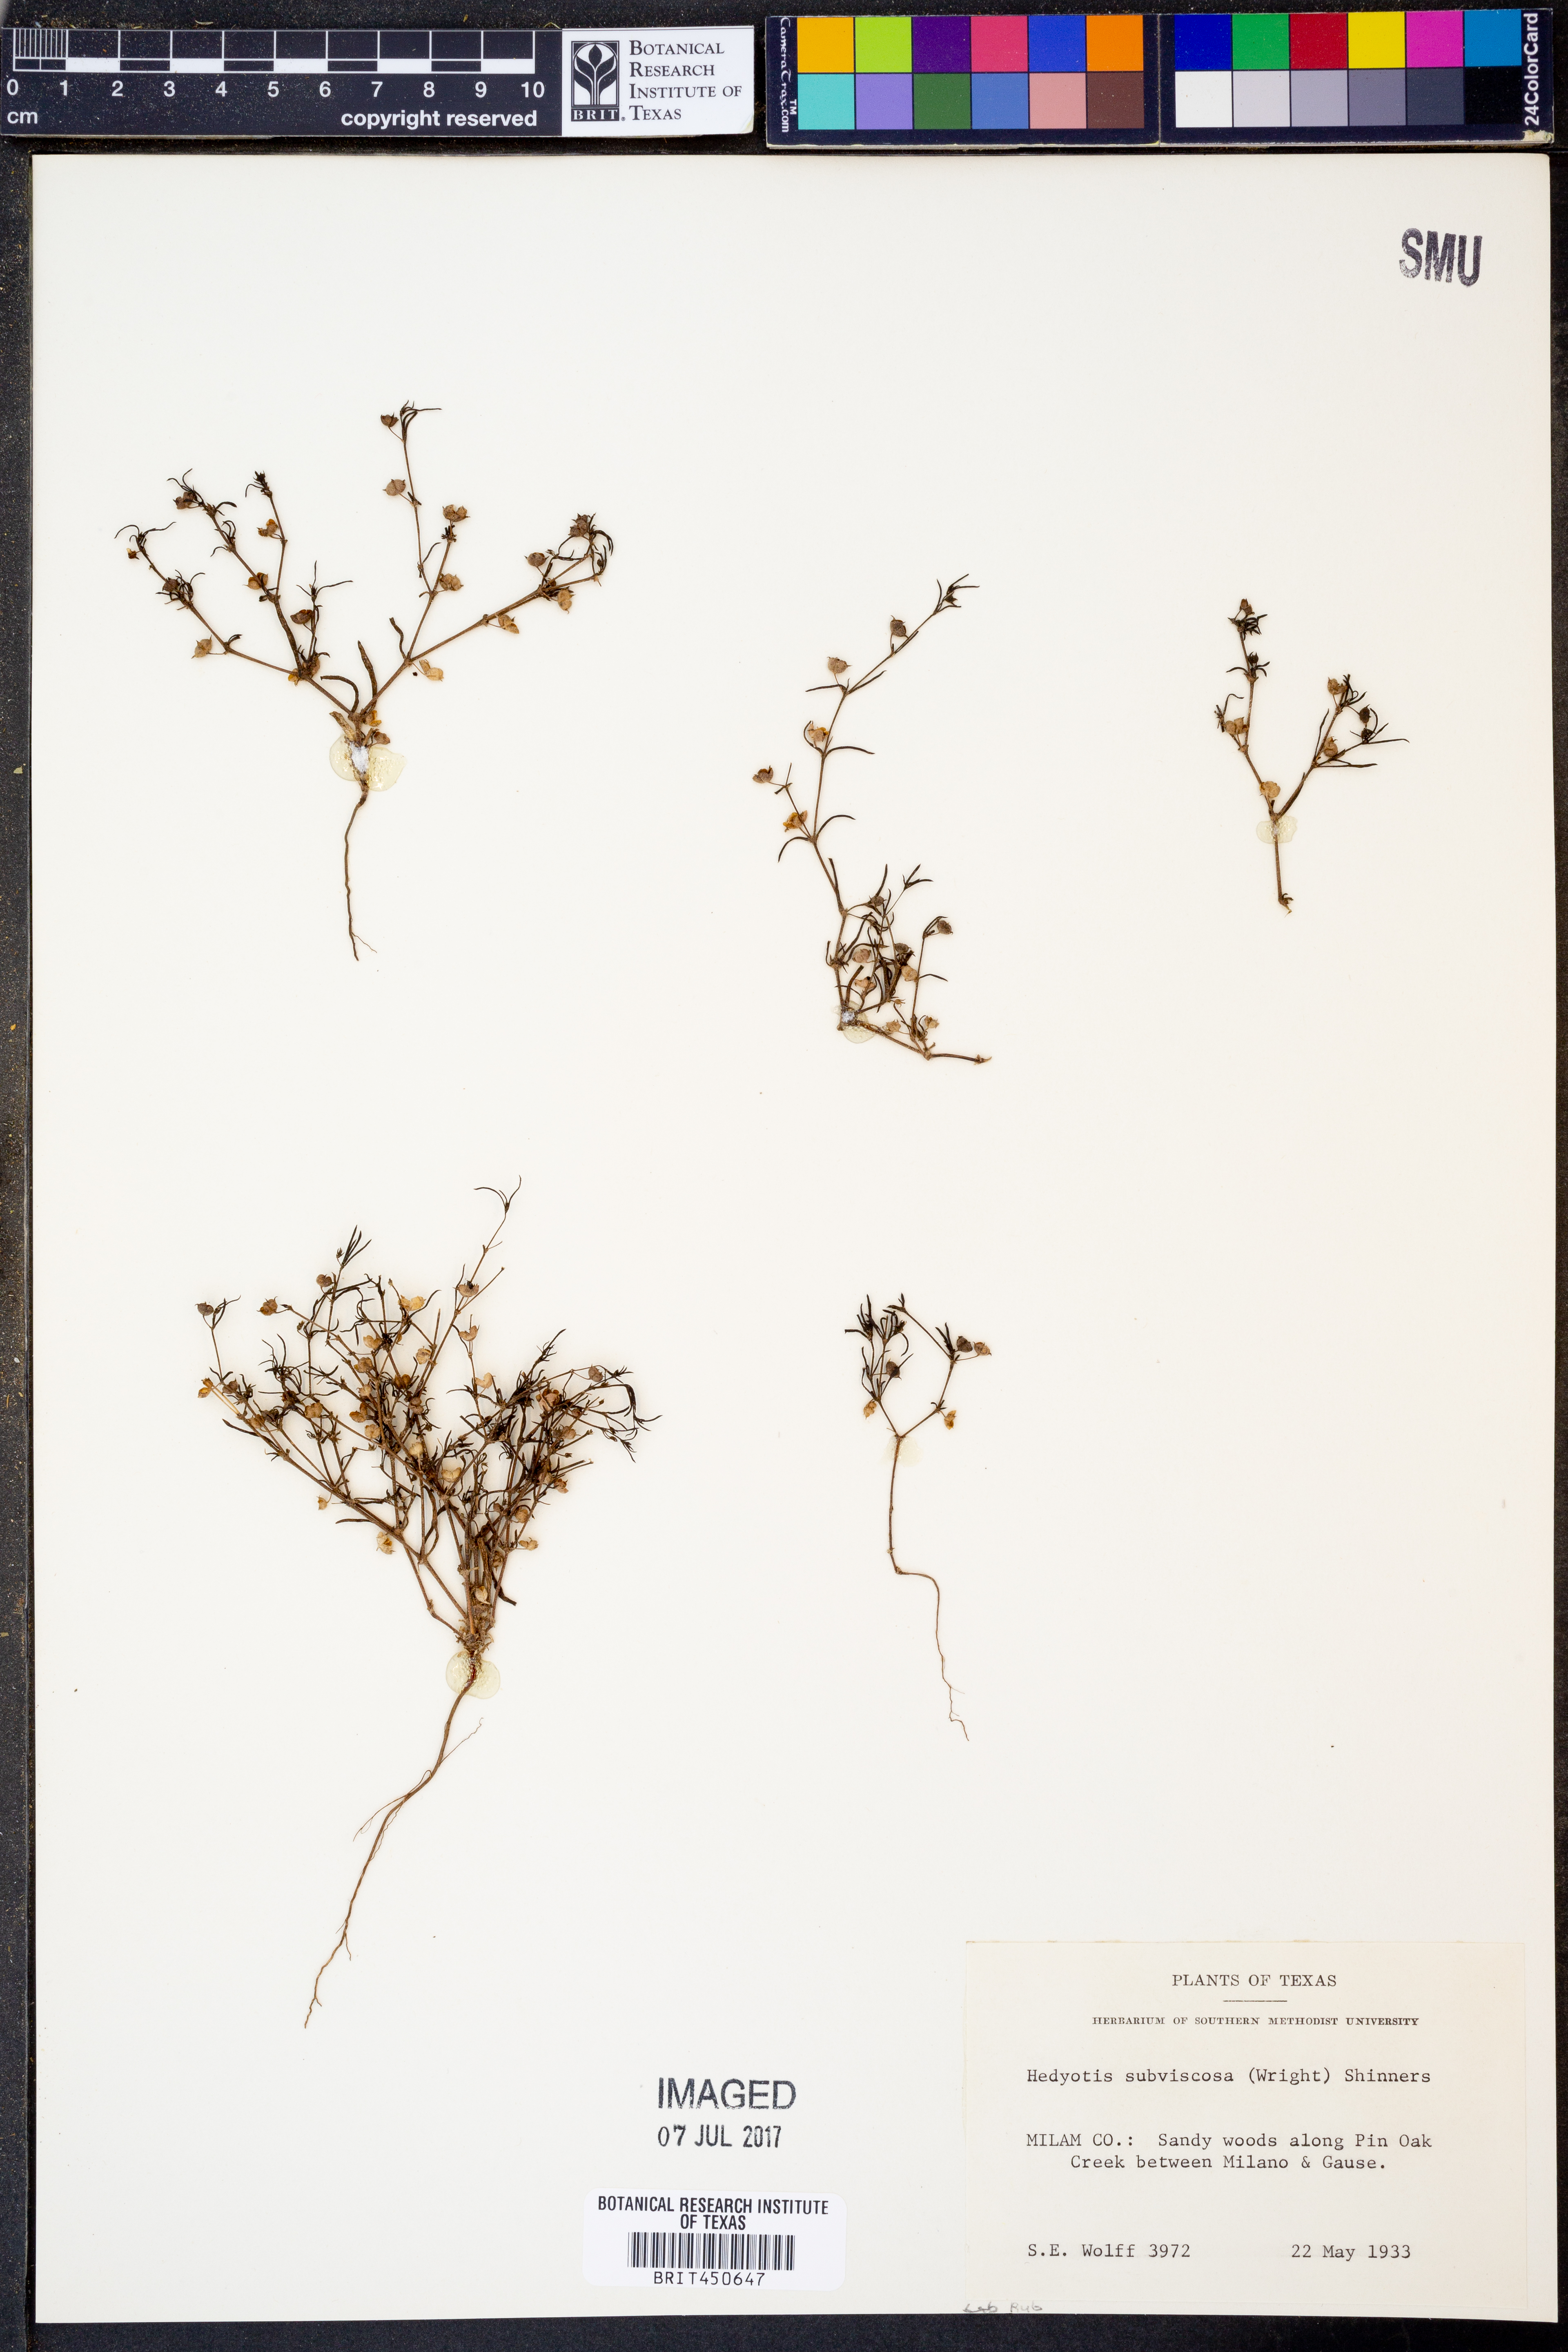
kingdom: Plantae
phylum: Tracheophyta
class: Magnoliopsida
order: Gentianales
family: Rubiaceae
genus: Houstonia
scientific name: Houstonia subviscosa
